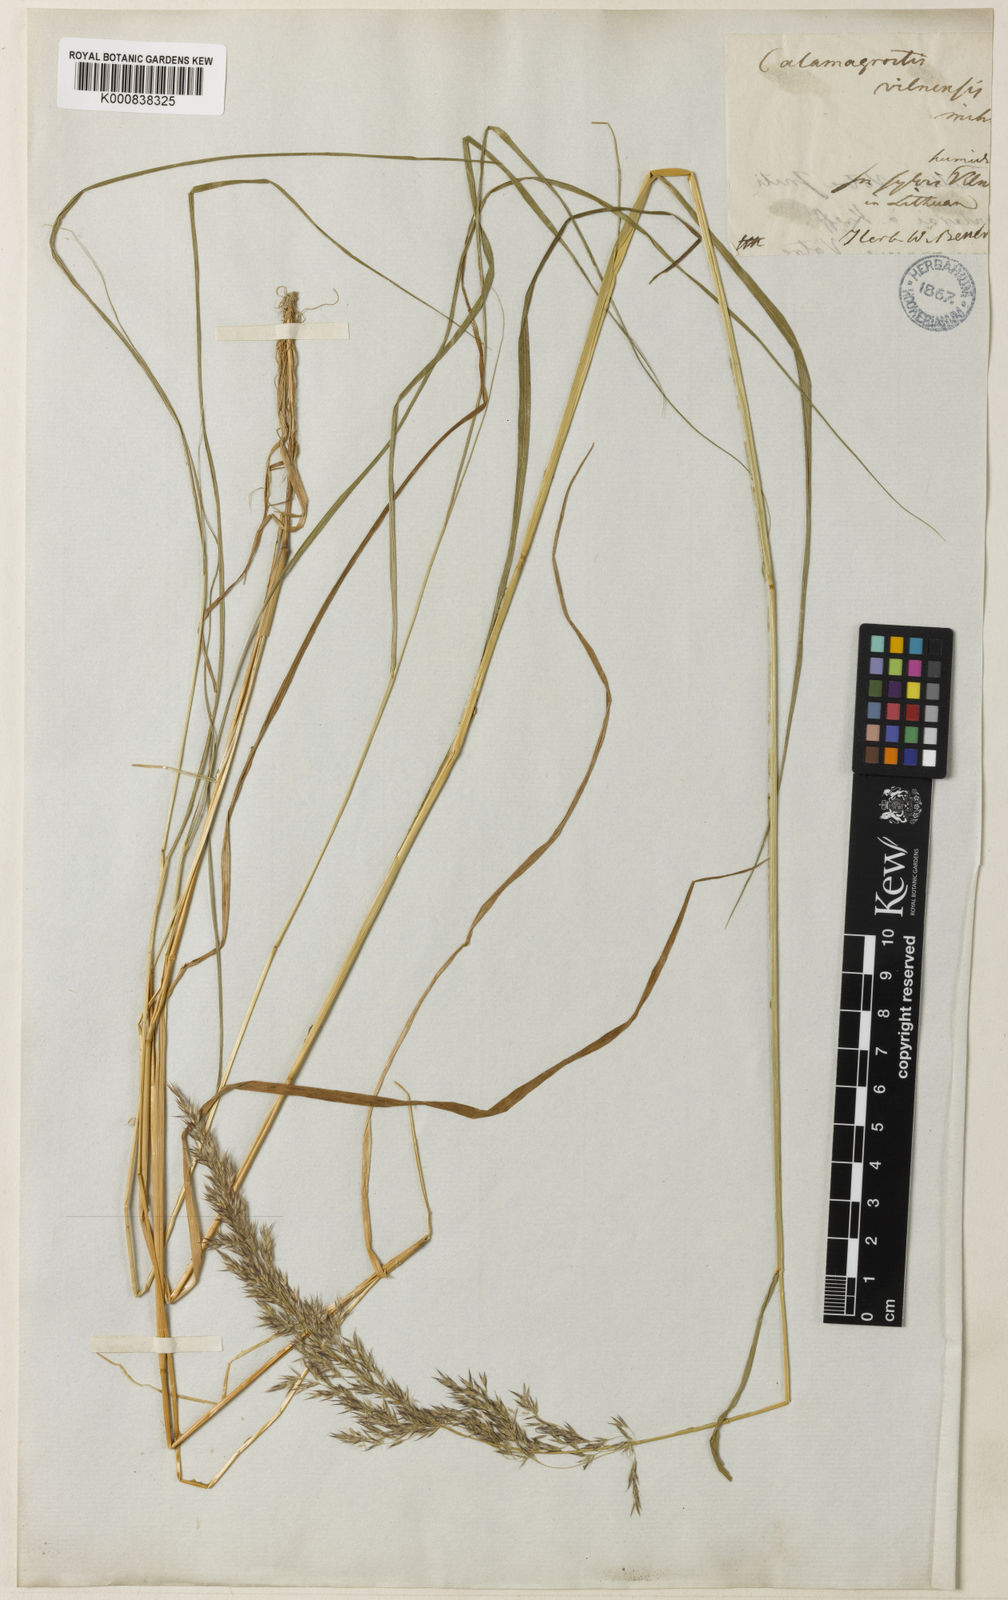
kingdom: Plantae
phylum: Tracheophyta
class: Liliopsida
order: Poales
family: Poaceae
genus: Calamagrostis
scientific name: Calamagrostis canescens
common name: Purple small-reed
